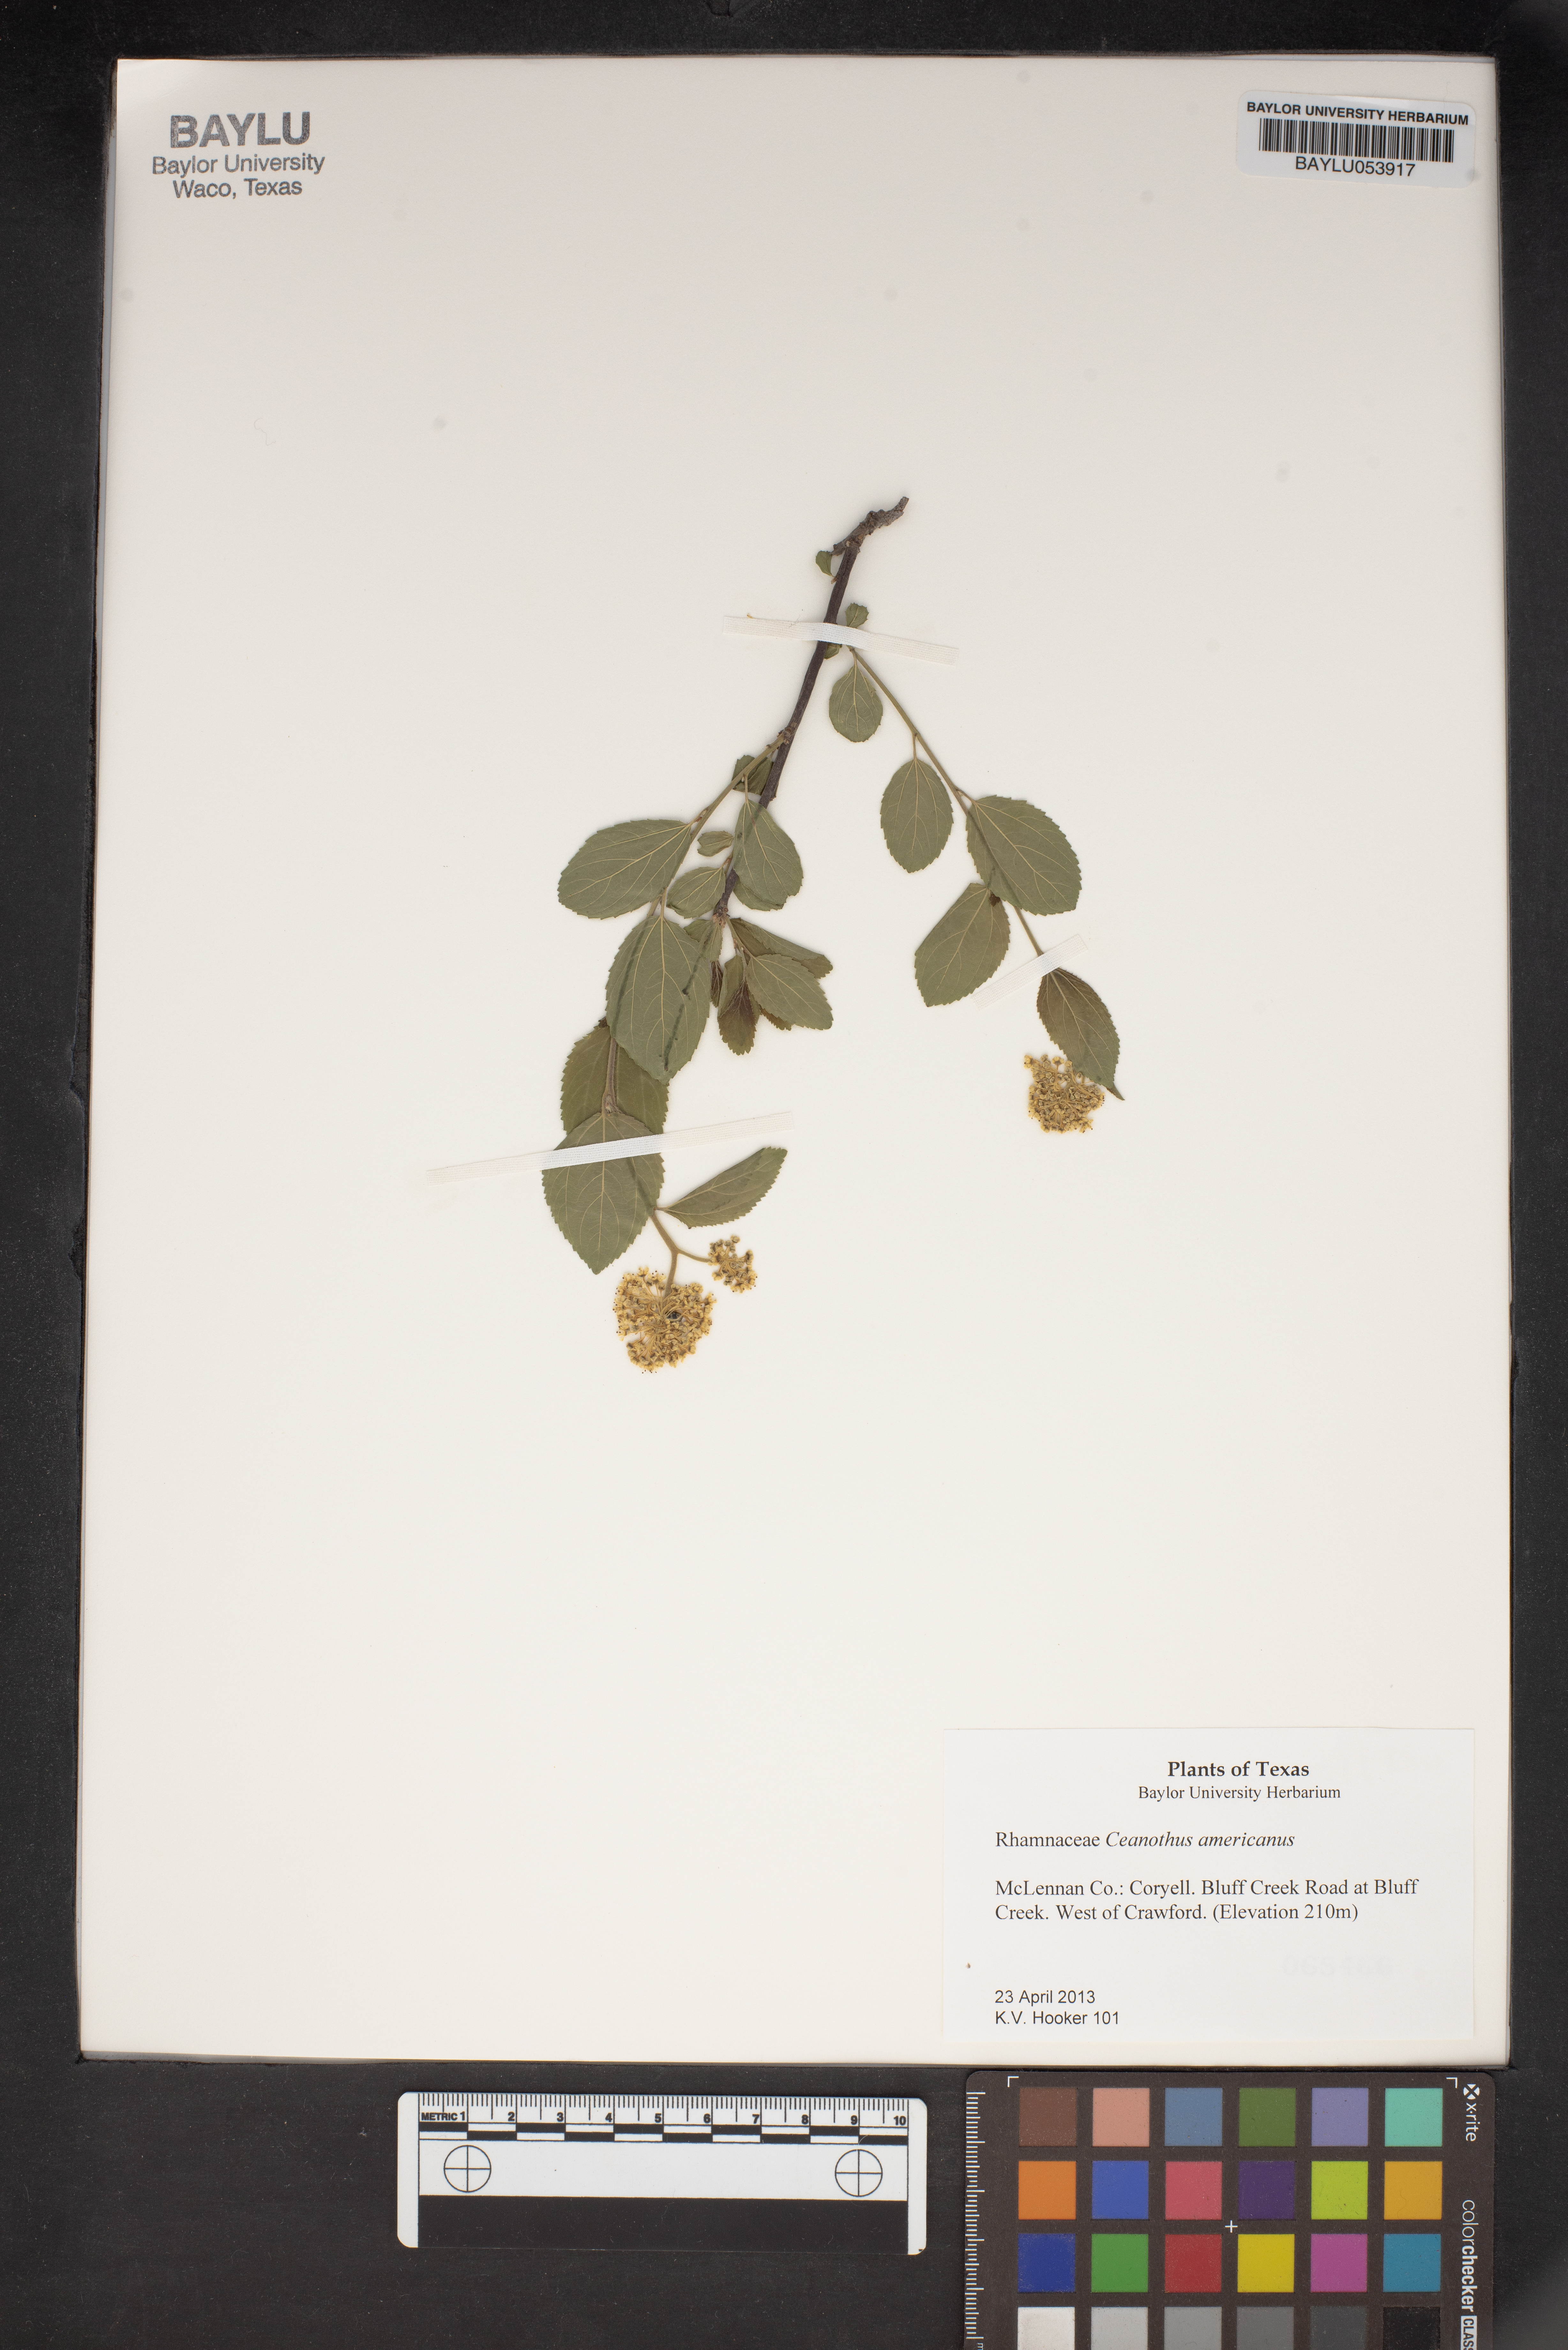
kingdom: Plantae
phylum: Tracheophyta
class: Magnoliopsida
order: Rosales
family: Rhamnaceae
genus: Ceanothus
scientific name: Ceanothus americanus
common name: Redroot
